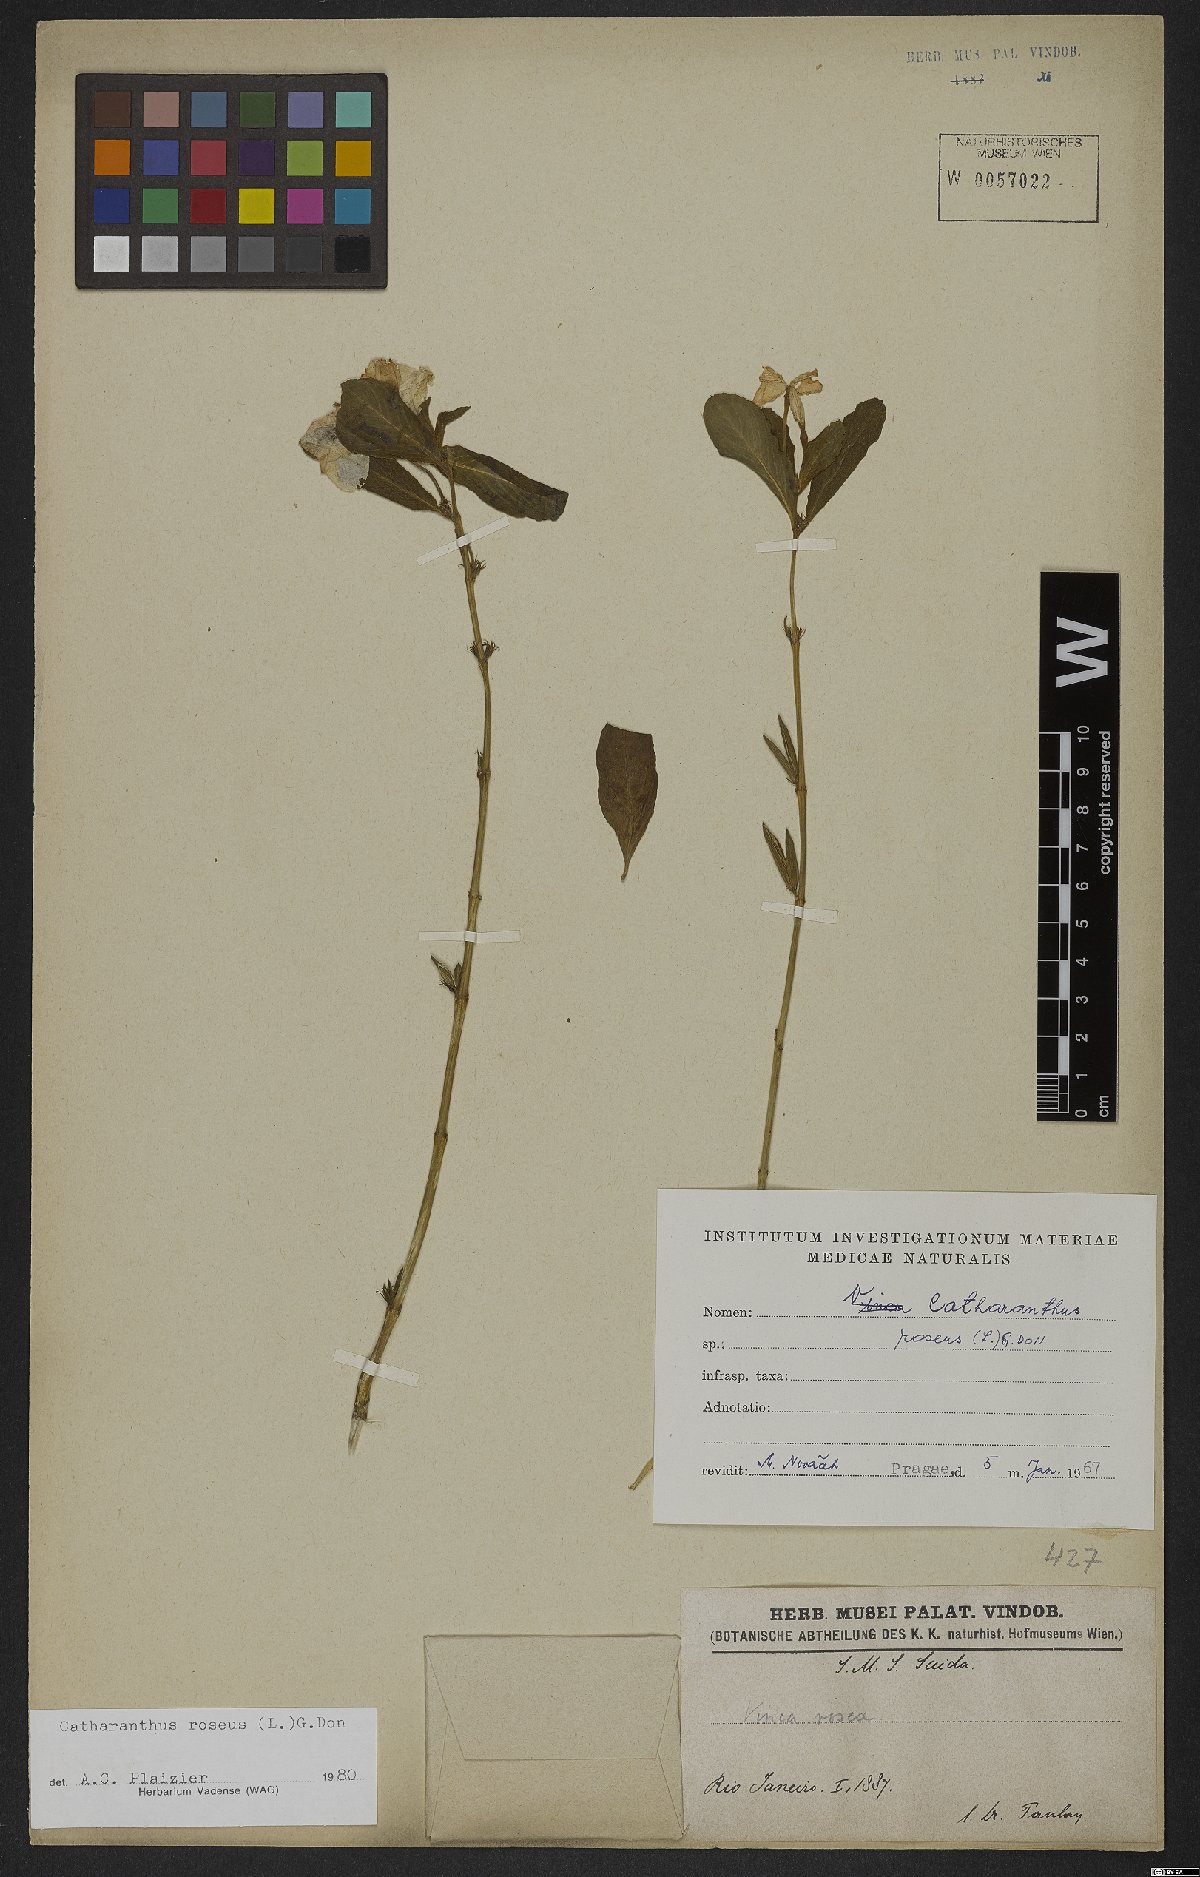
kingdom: Plantae
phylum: Tracheophyta
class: Magnoliopsida
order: Gentianales
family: Apocynaceae
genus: Catharanthus
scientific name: Catharanthus roseus
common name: Madagascar periwinkle
